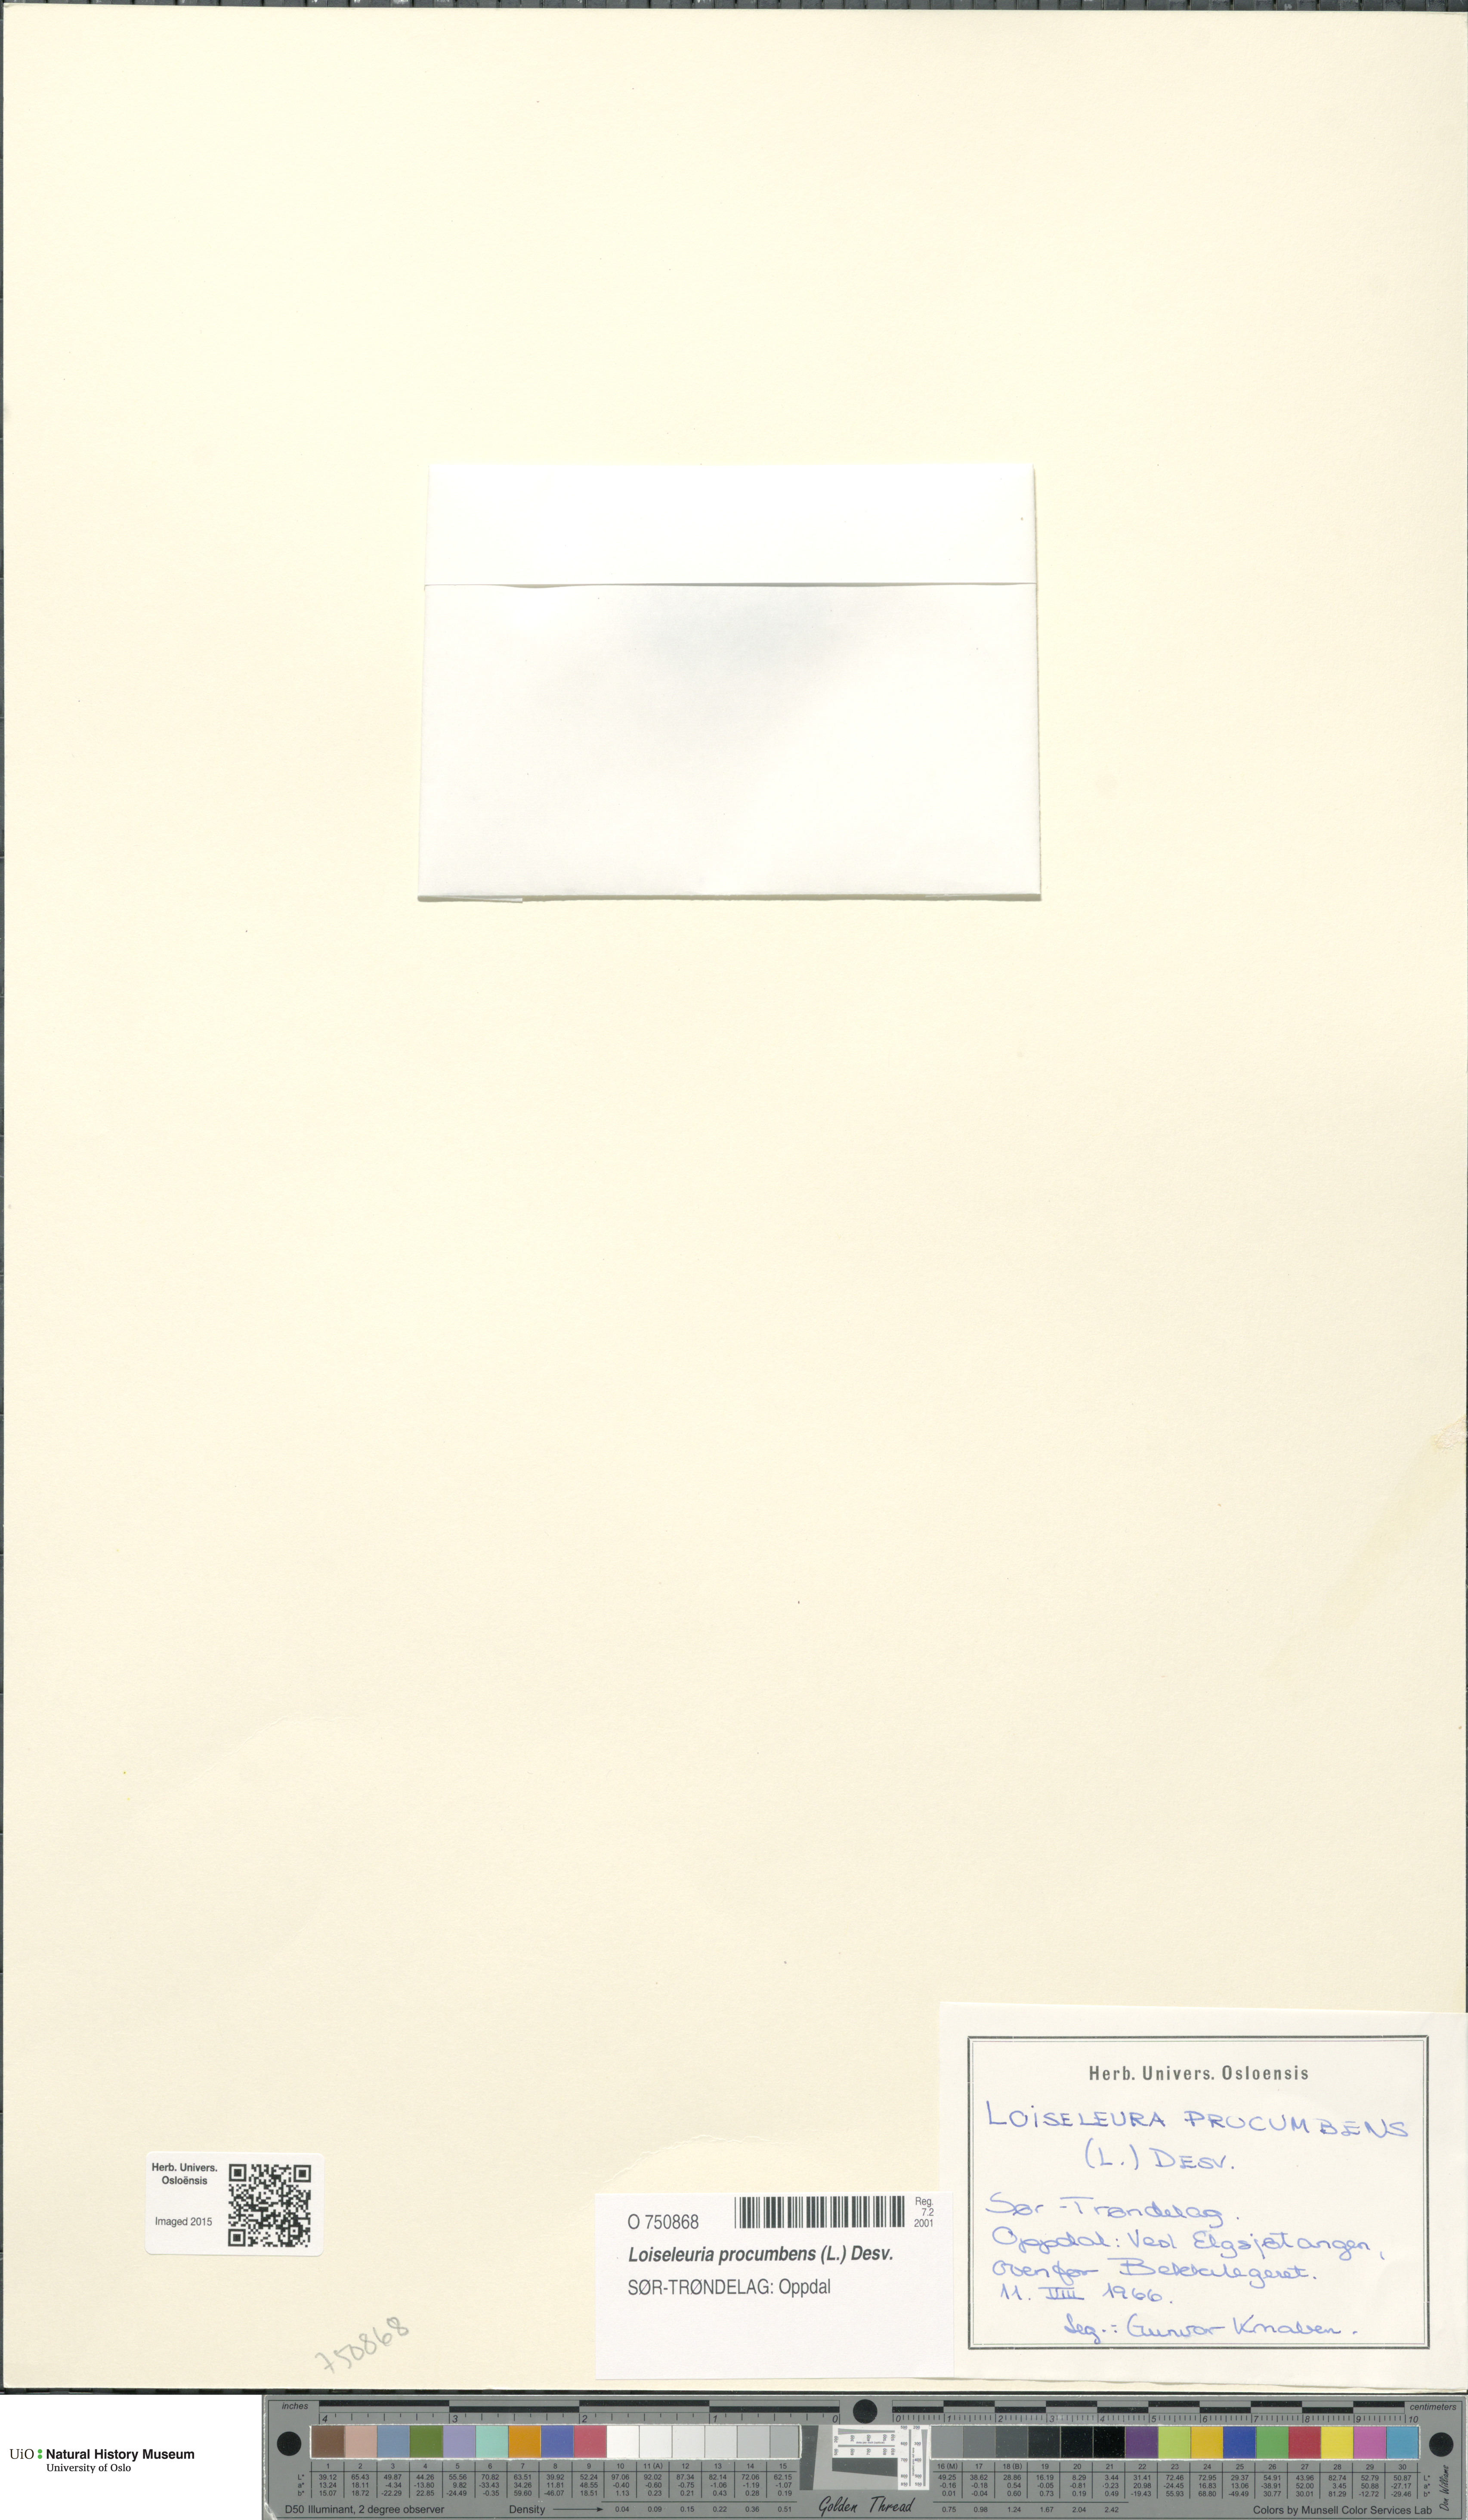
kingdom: Plantae
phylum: Tracheophyta
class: Magnoliopsida
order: Ericales
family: Ericaceae
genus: Kalmia
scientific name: Kalmia procumbens
